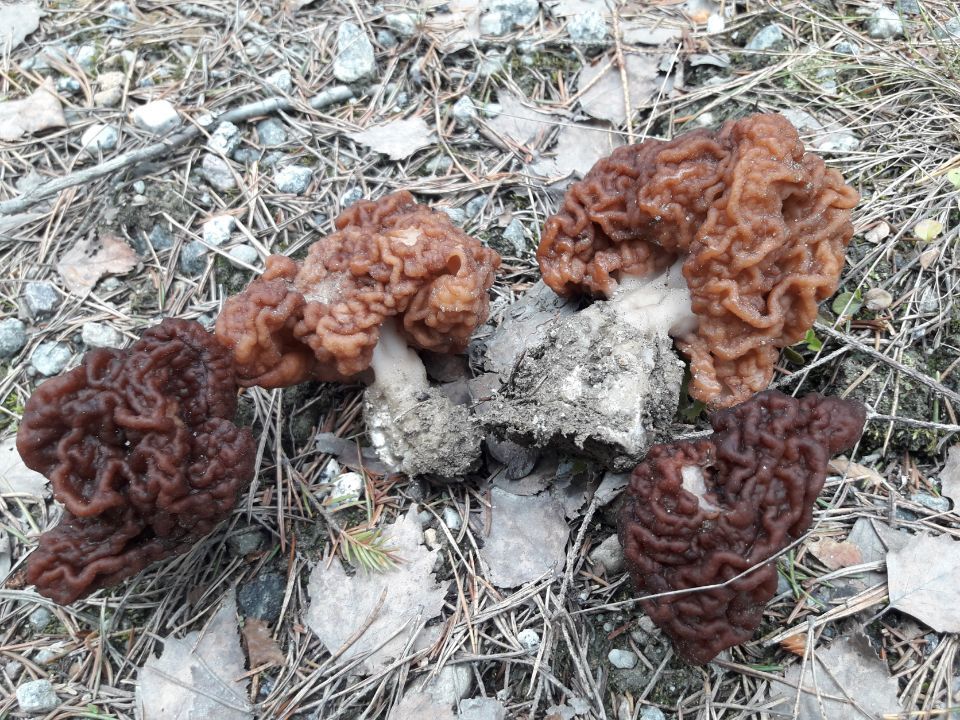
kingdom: Fungi
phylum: Ascomycota
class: Pezizomycetes
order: Pezizales
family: Discinaceae
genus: Gyromitra
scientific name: Gyromitra esculenta
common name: False morel
